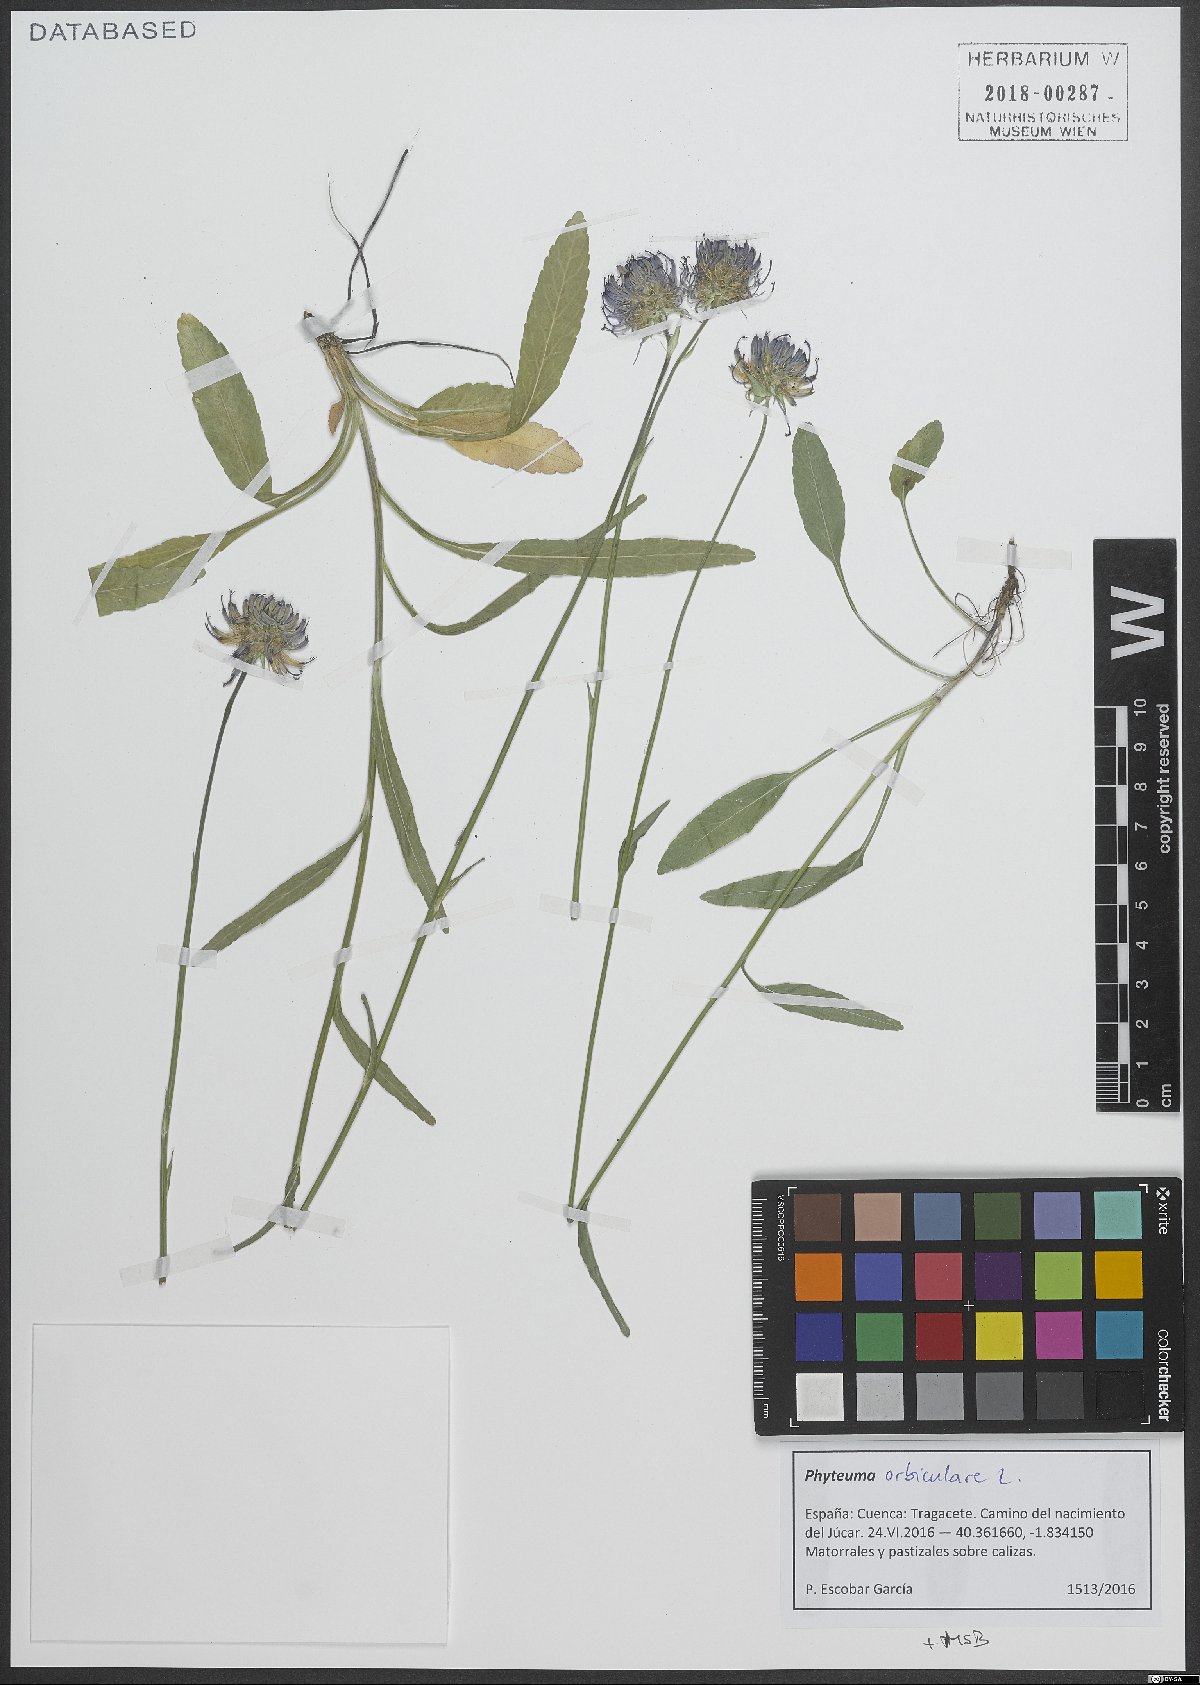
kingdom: Plantae
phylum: Tracheophyta
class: Magnoliopsida
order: Asterales
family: Campanulaceae
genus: Phyteuma
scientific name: Phyteuma orbiculare
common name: Round-headed rampion
